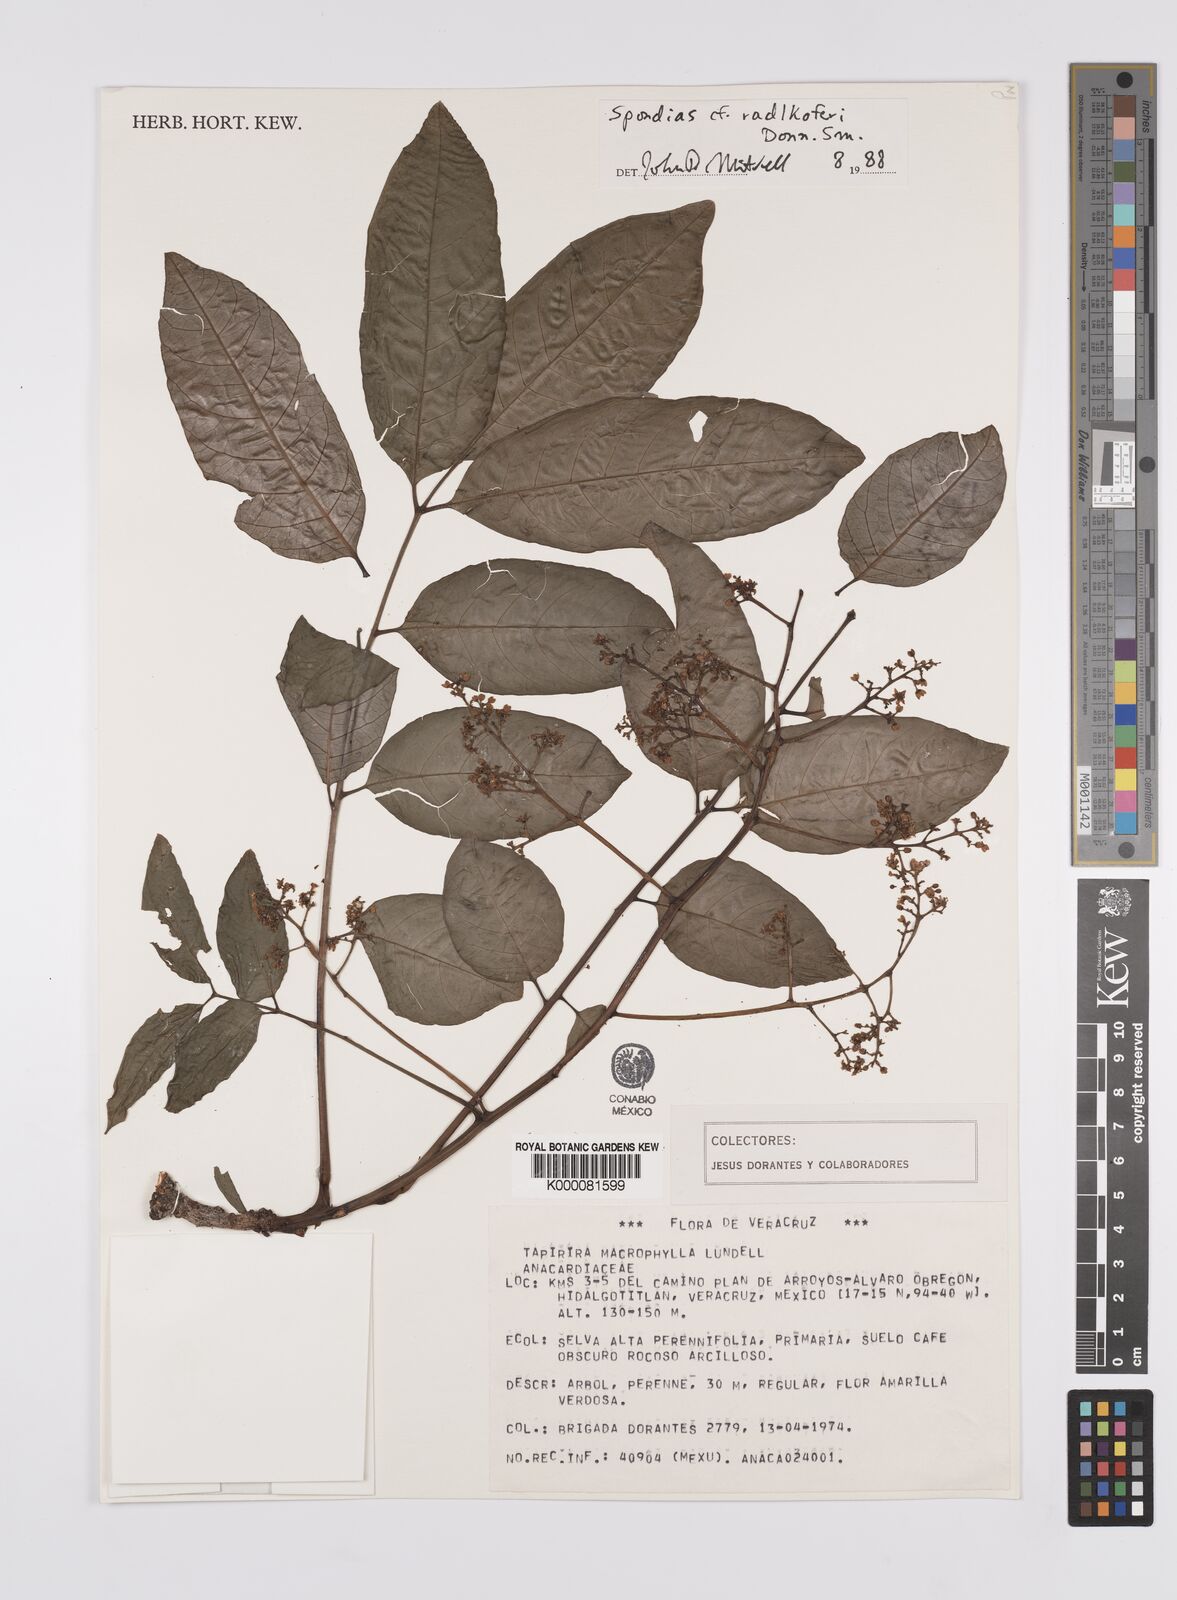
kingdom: Plantae
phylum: Tracheophyta
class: Magnoliopsida
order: Sapindales
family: Anacardiaceae
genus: Spondias
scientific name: Spondias radlkoferi
